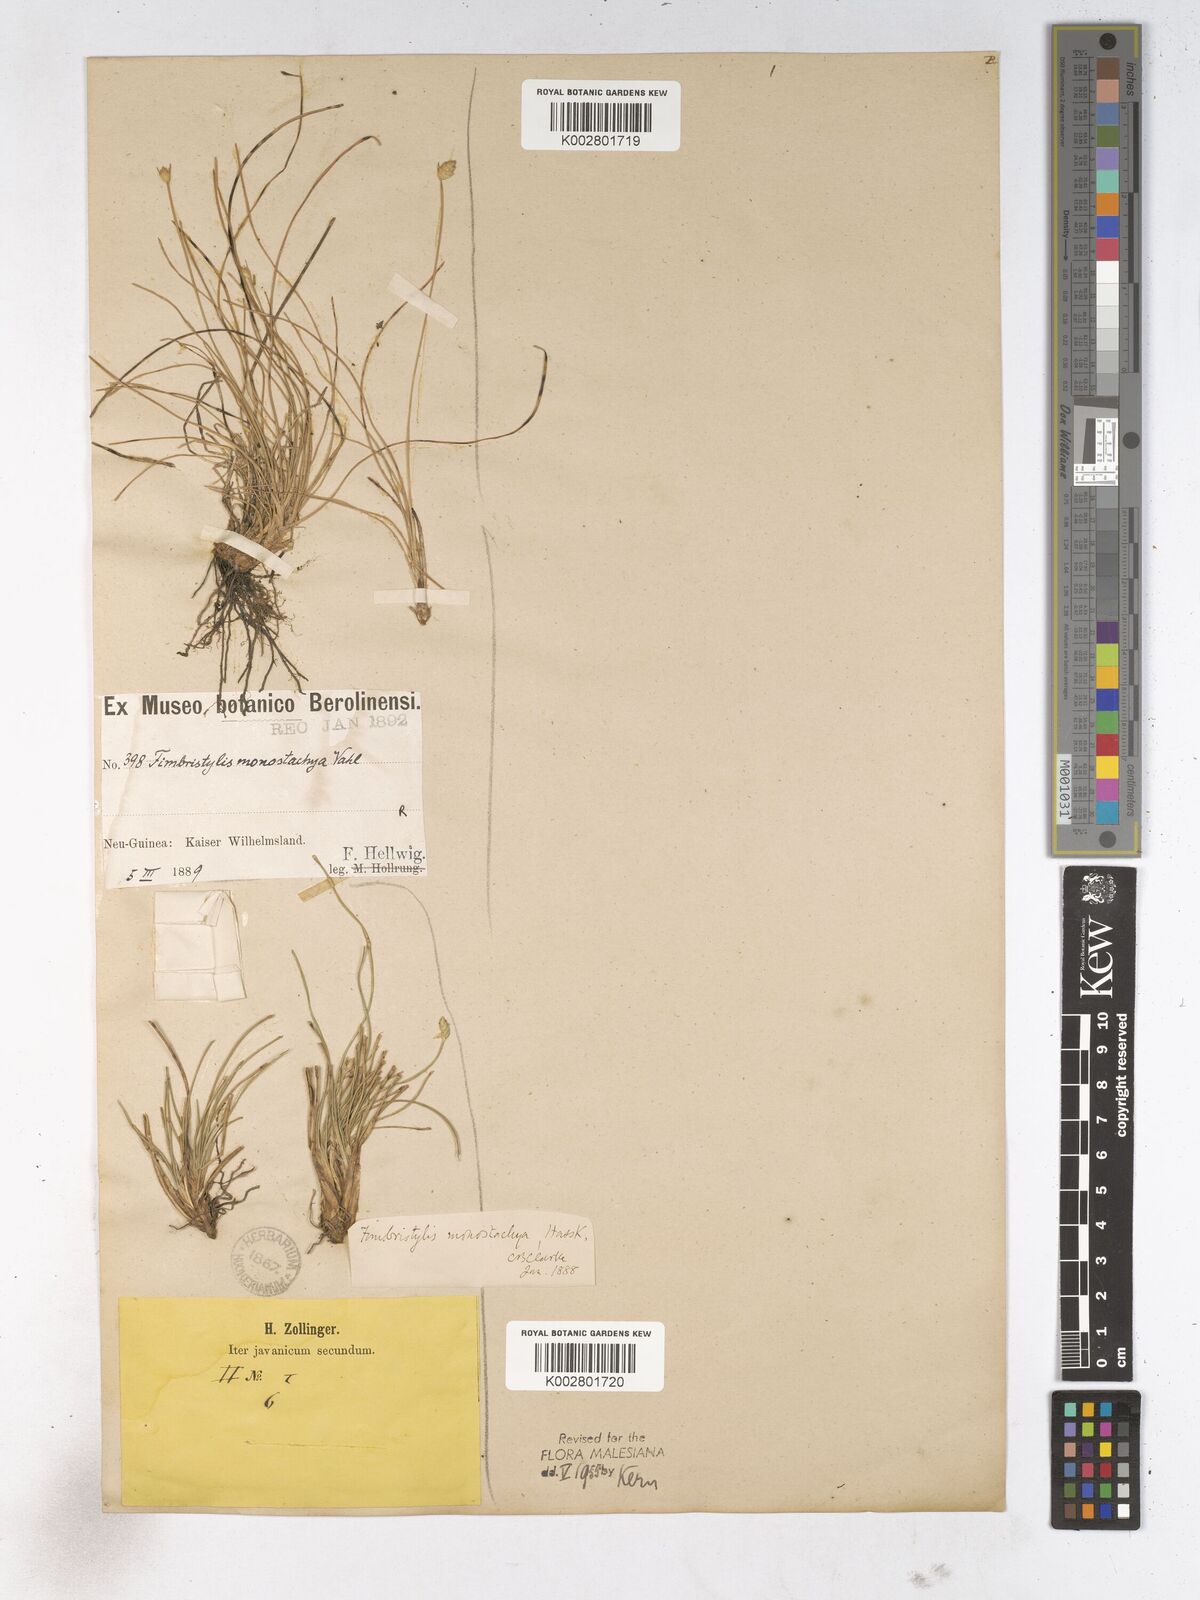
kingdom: Plantae
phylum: Tracheophyta
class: Liliopsida
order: Poales
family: Cyperaceae
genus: Abildgaardia
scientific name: Abildgaardia ovata
